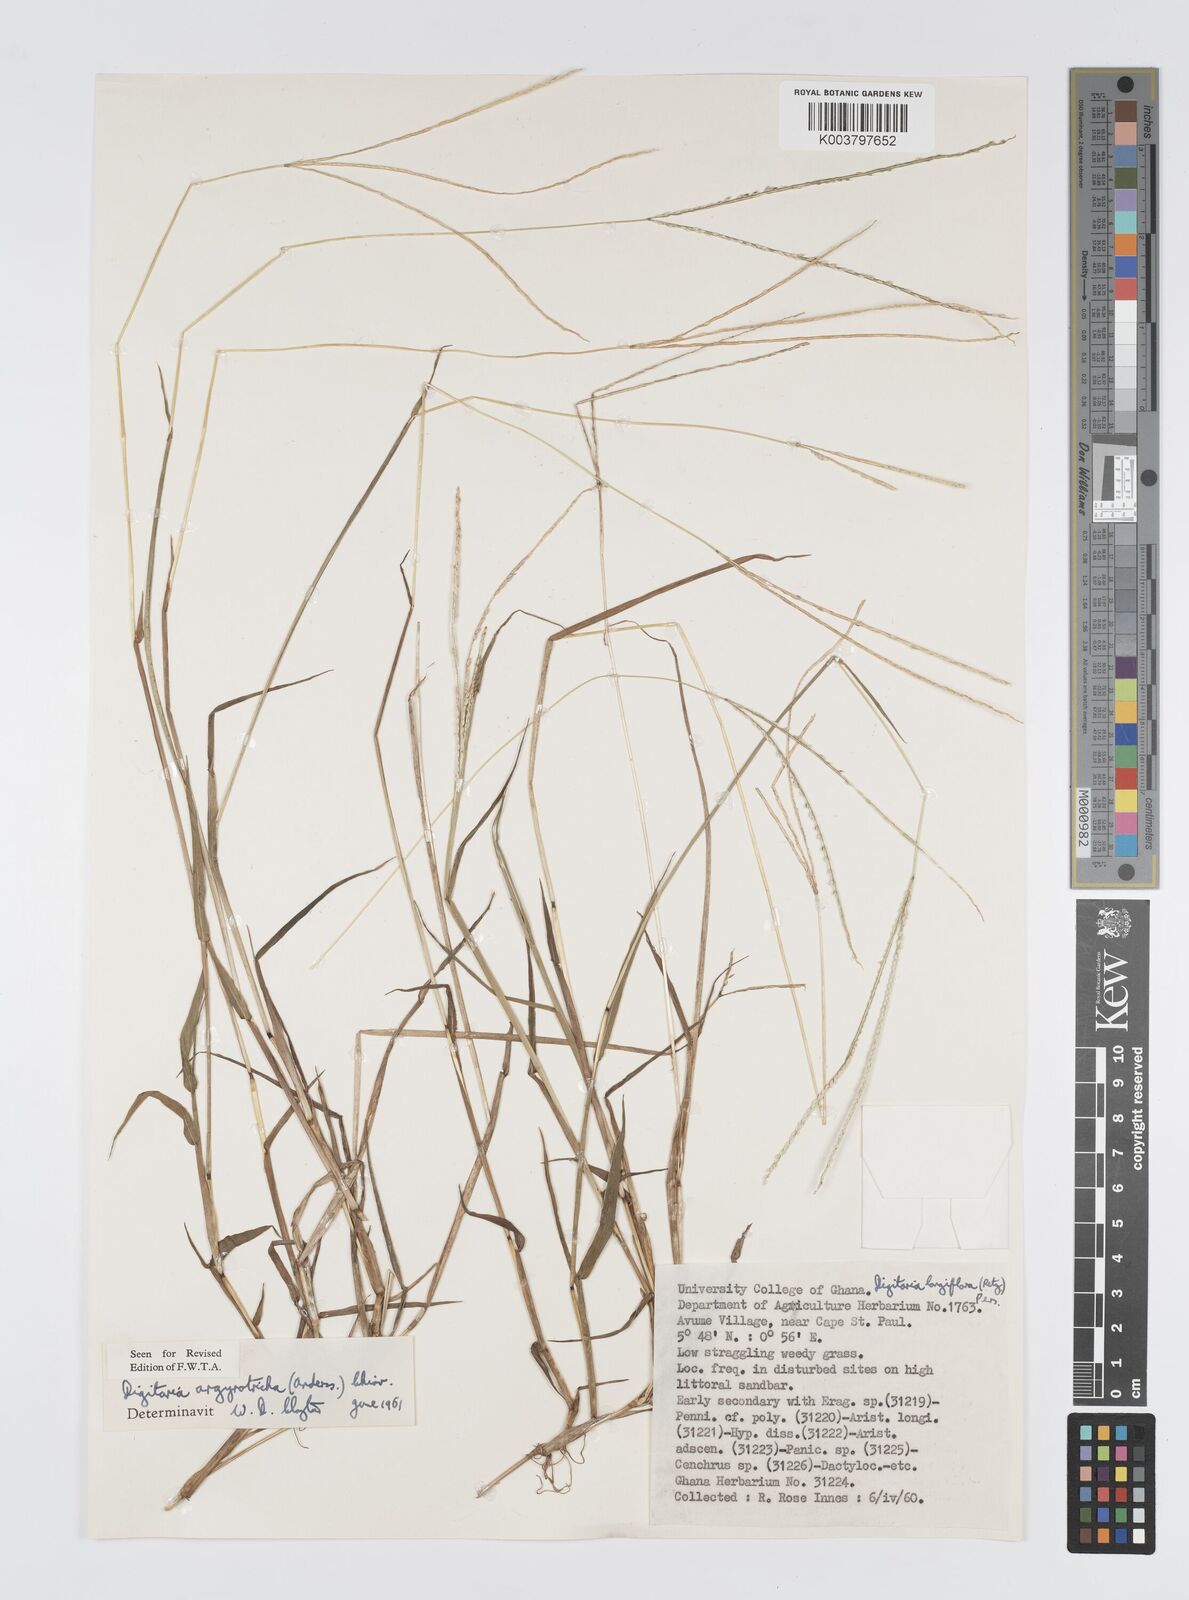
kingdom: Plantae
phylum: Tracheophyta
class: Liliopsida
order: Poales
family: Poaceae
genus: Digitaria
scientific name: Digitaria argyrotricha
